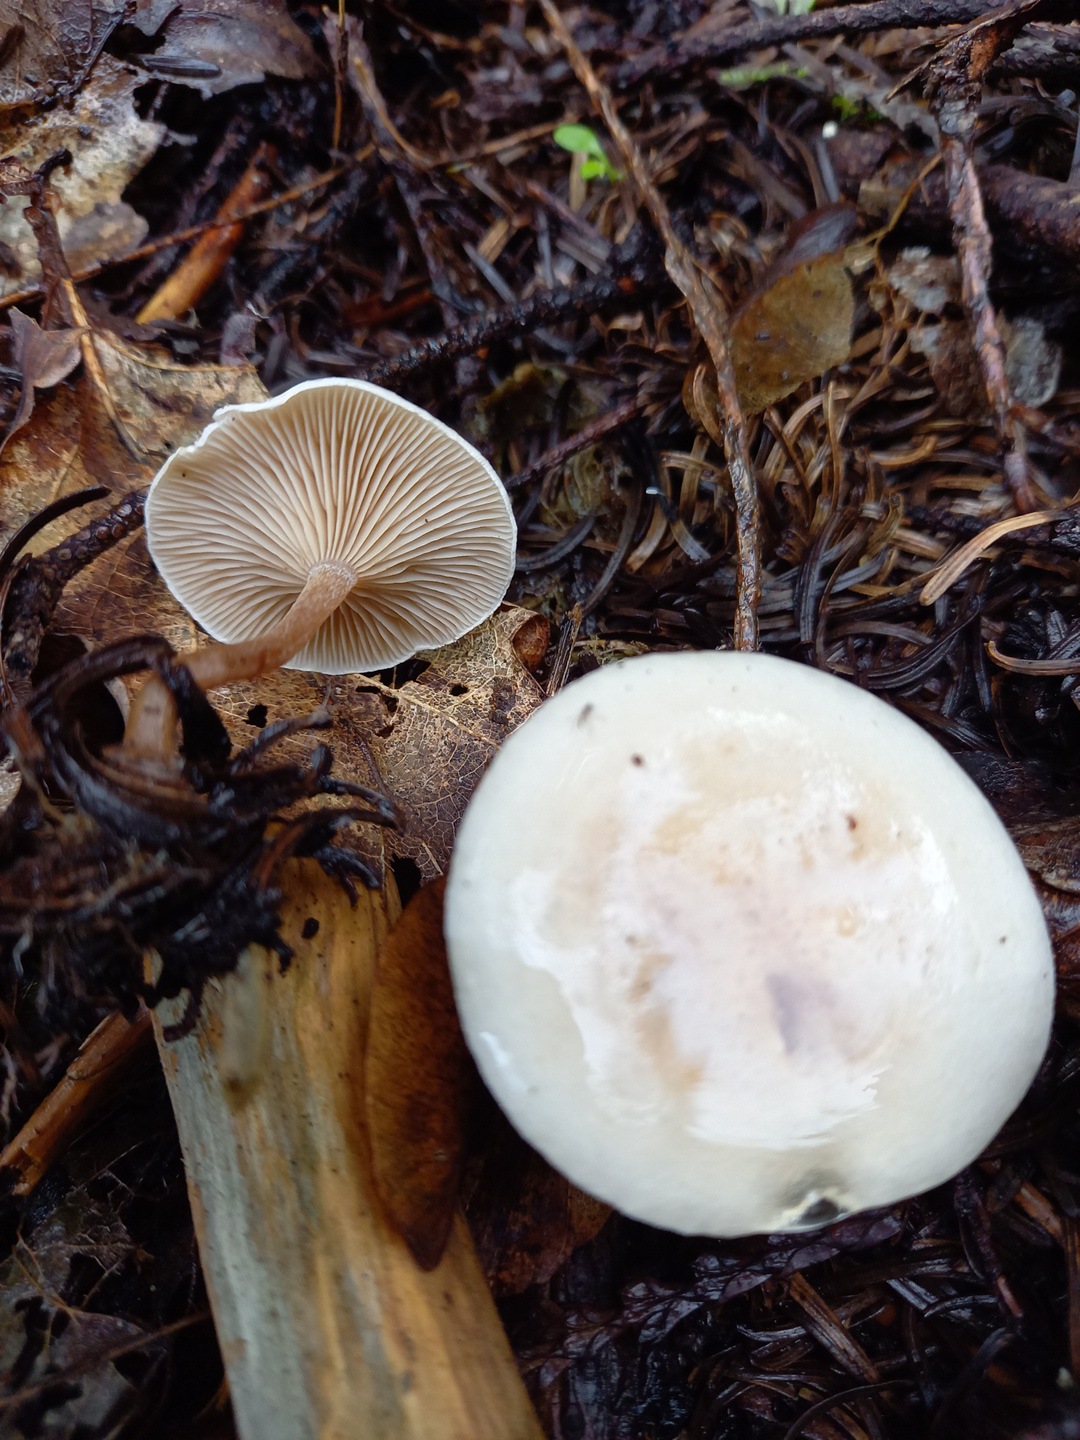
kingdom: Fungi
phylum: Basidiomycota
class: Agaricomycetes
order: Agaricales
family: Tricholomataceae
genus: Ripartites
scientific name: Ripartites tricholoma
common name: almindelig skæghat
